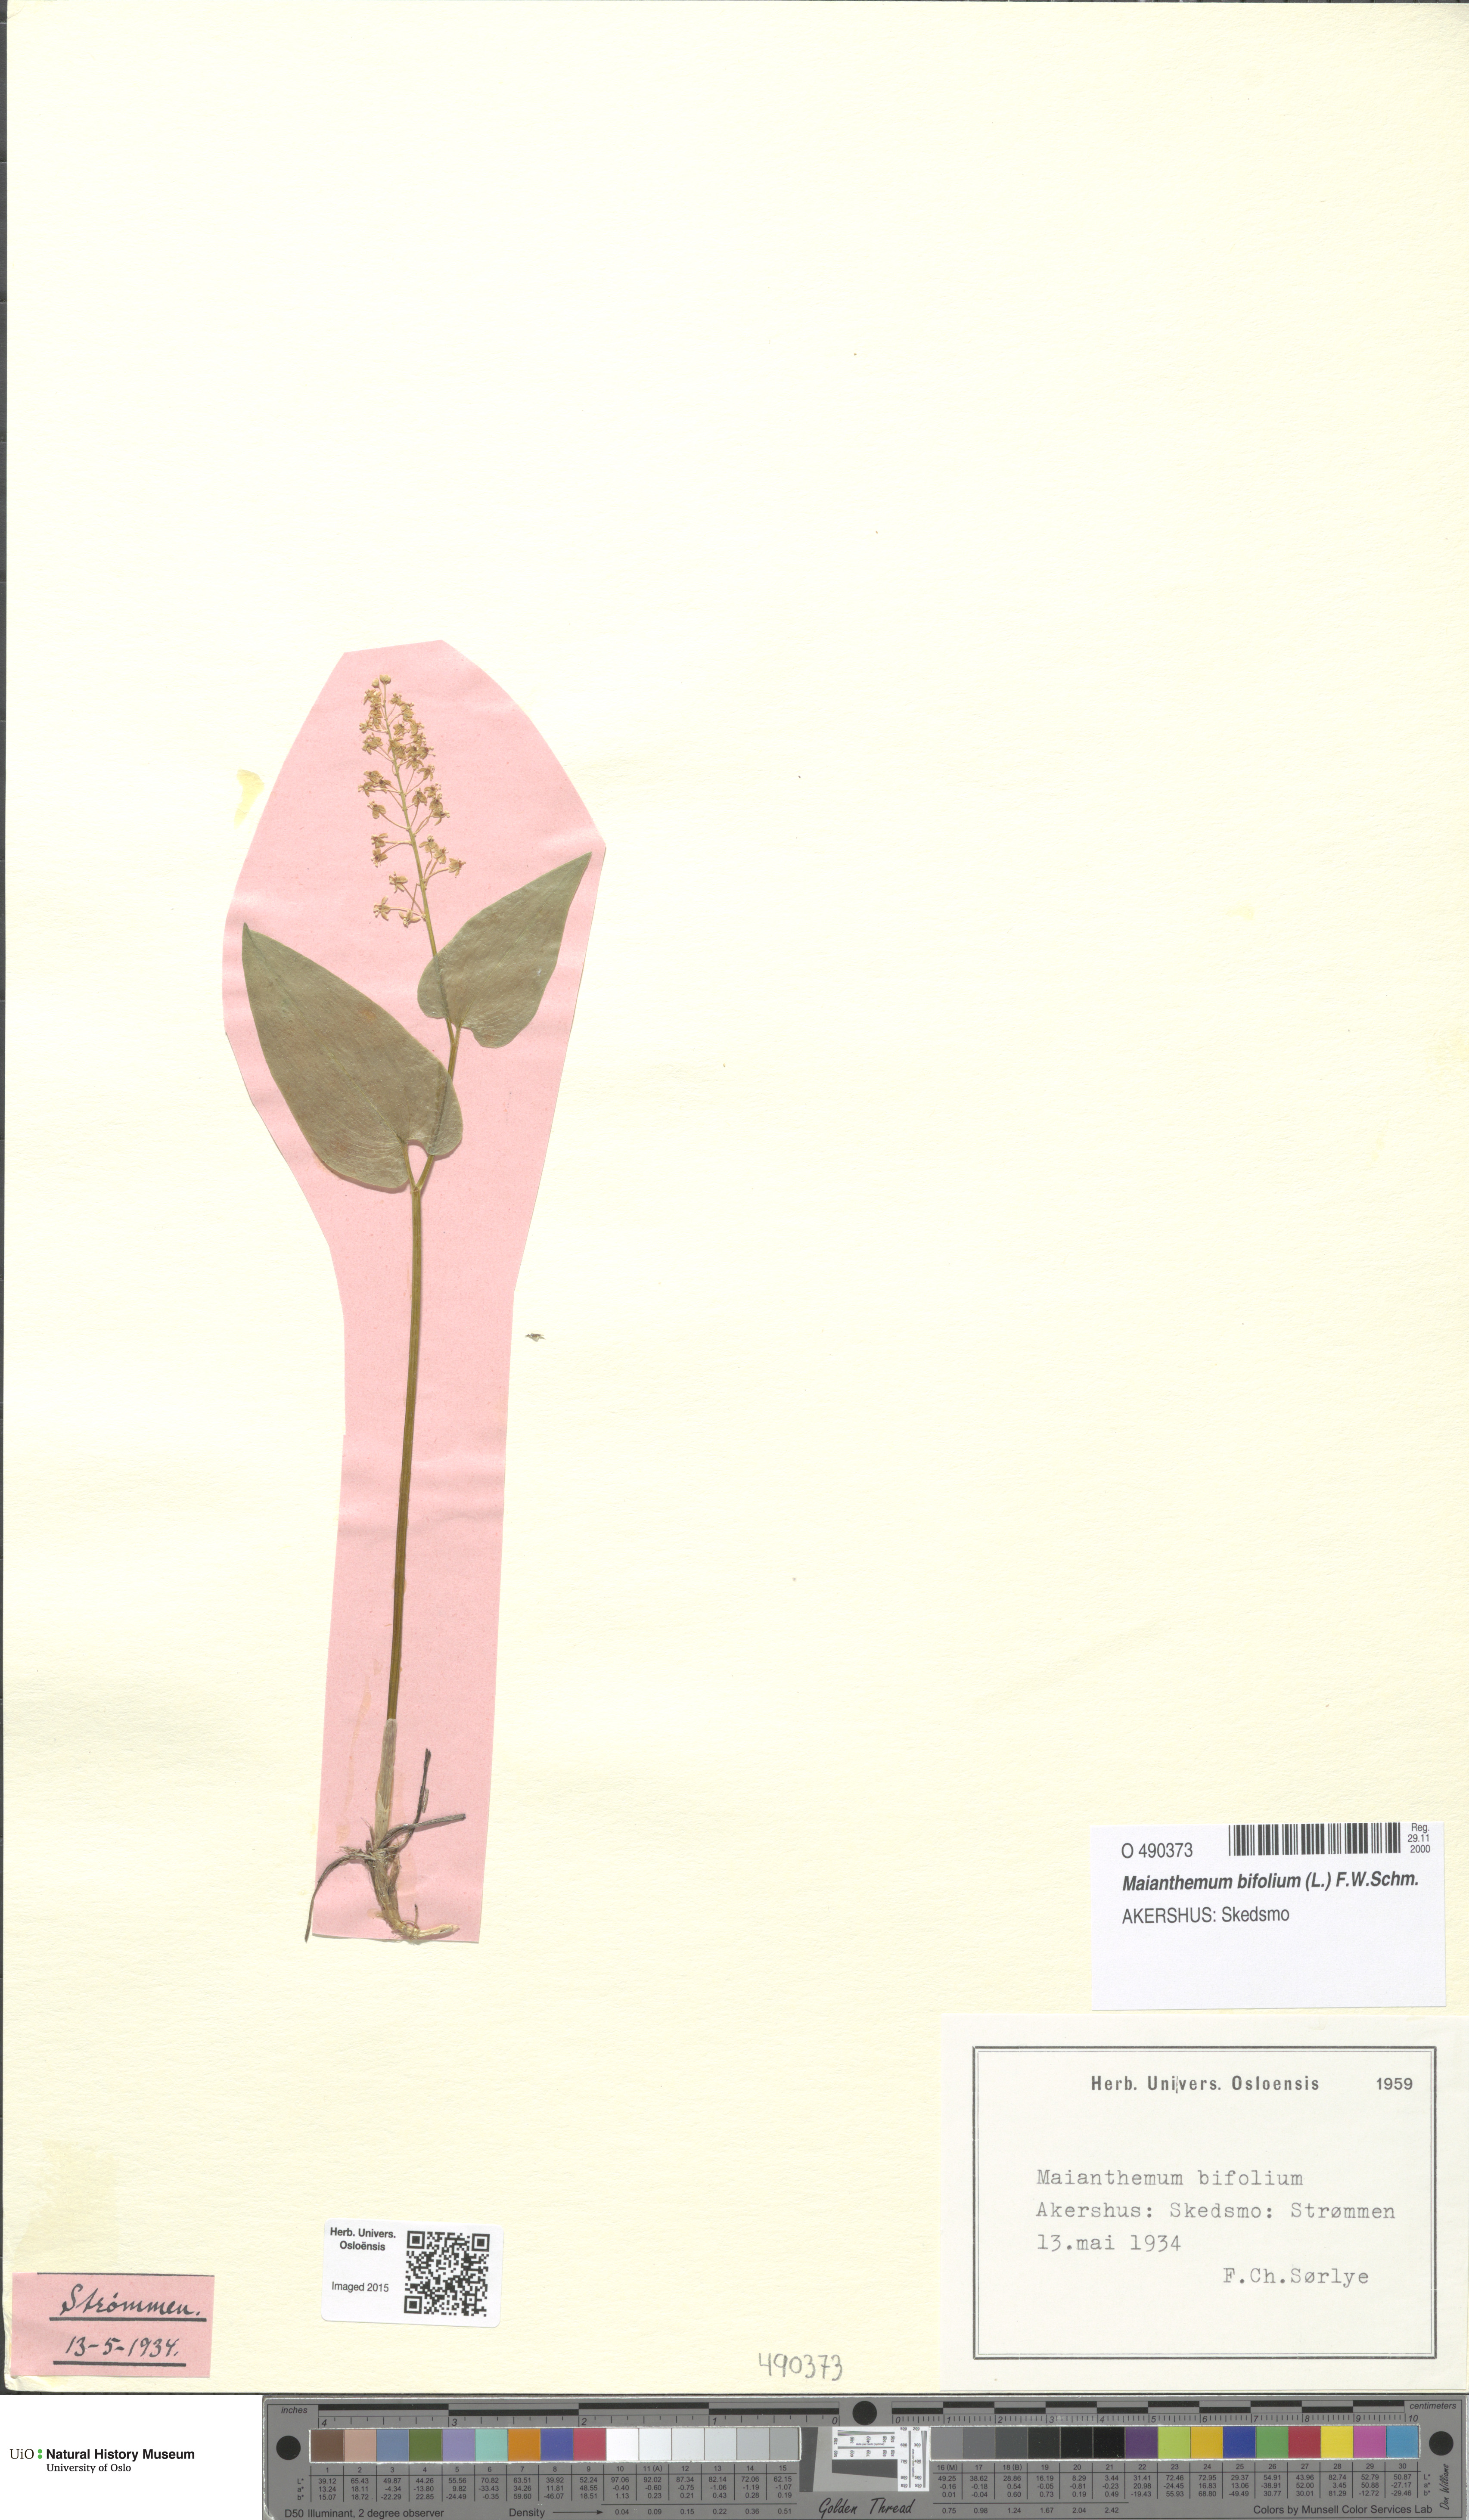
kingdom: Plantae
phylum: Tracheophyta
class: Liliopsida
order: Asparagales
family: Asparagaceae
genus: Maianthemum
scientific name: Maianthemum bifolium
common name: May lily
